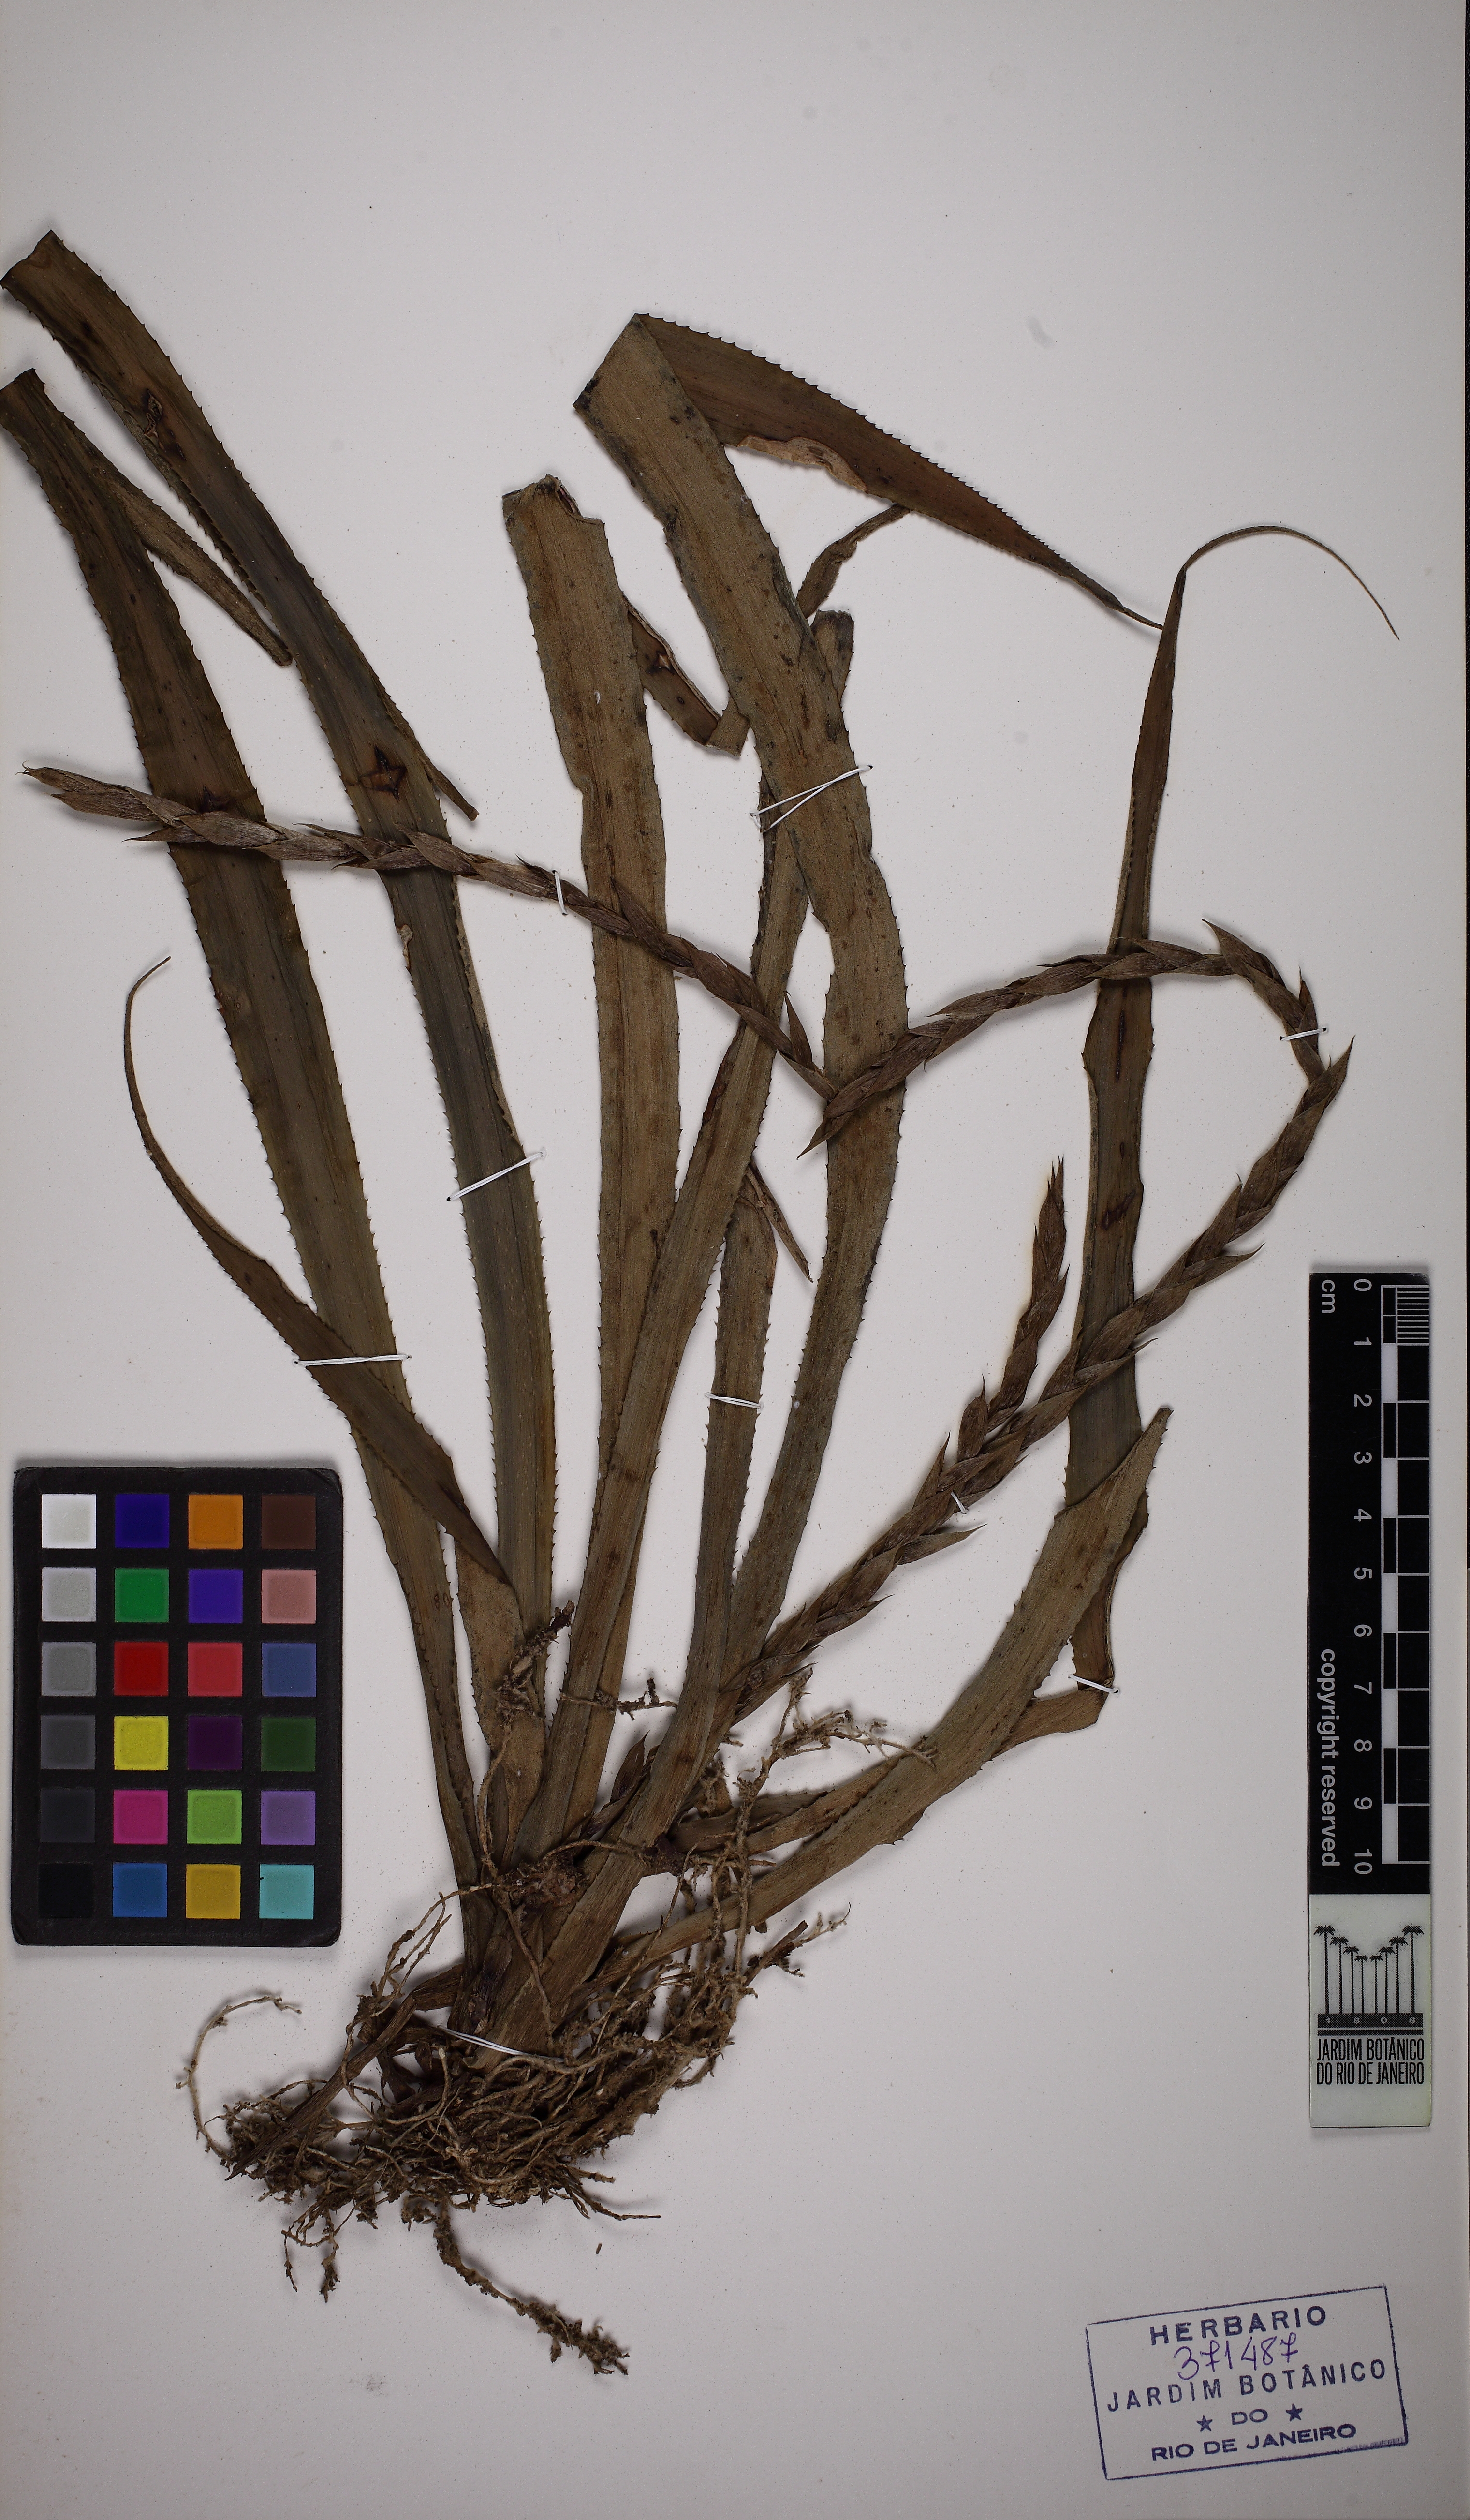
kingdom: Plantae
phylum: Tracheophyta
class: Liliopsida
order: Poales
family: Bromeliaceae
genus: Cryptanthus
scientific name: Cryptanthus acaulis
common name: Starfishplant
